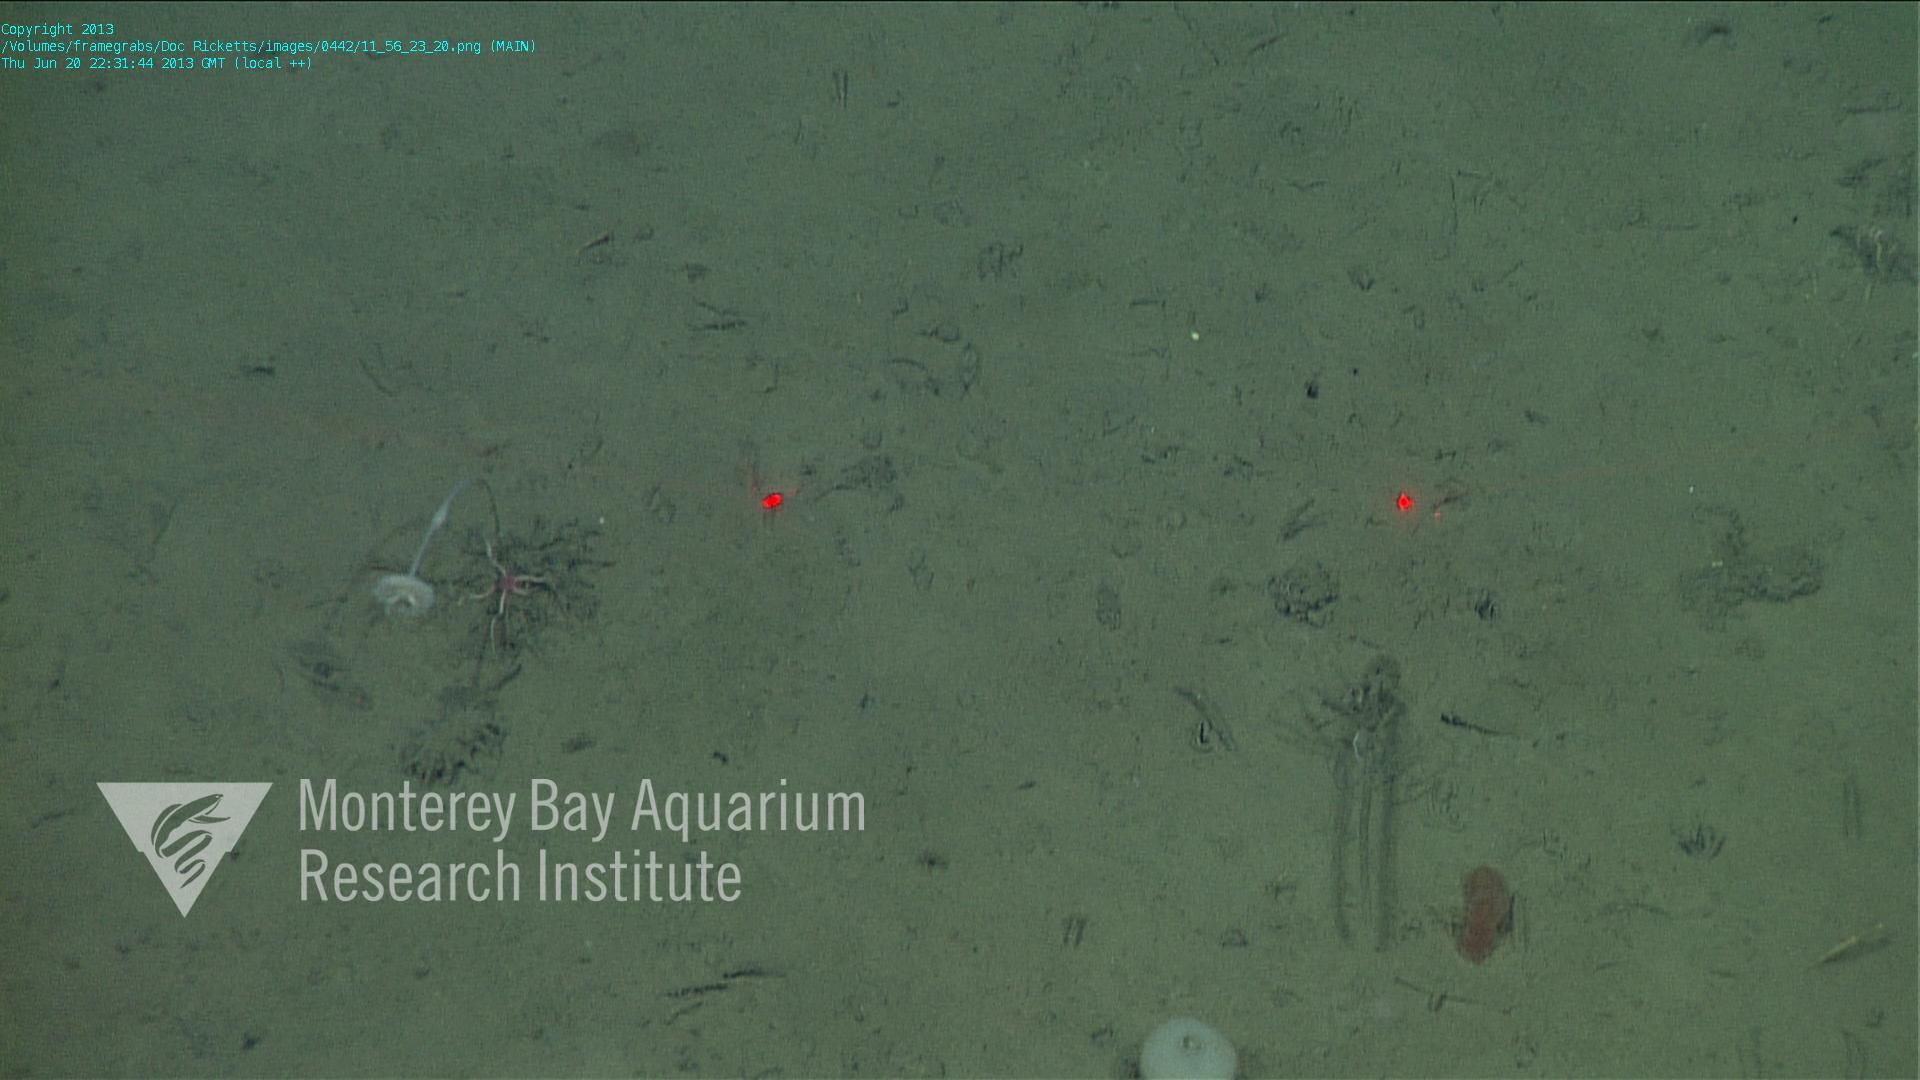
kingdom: Animalia
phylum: Porifera
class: Demospongiae
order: Poecilosclerida
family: Cladorhizidae
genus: Cladorhiza
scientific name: Cladorhiza
